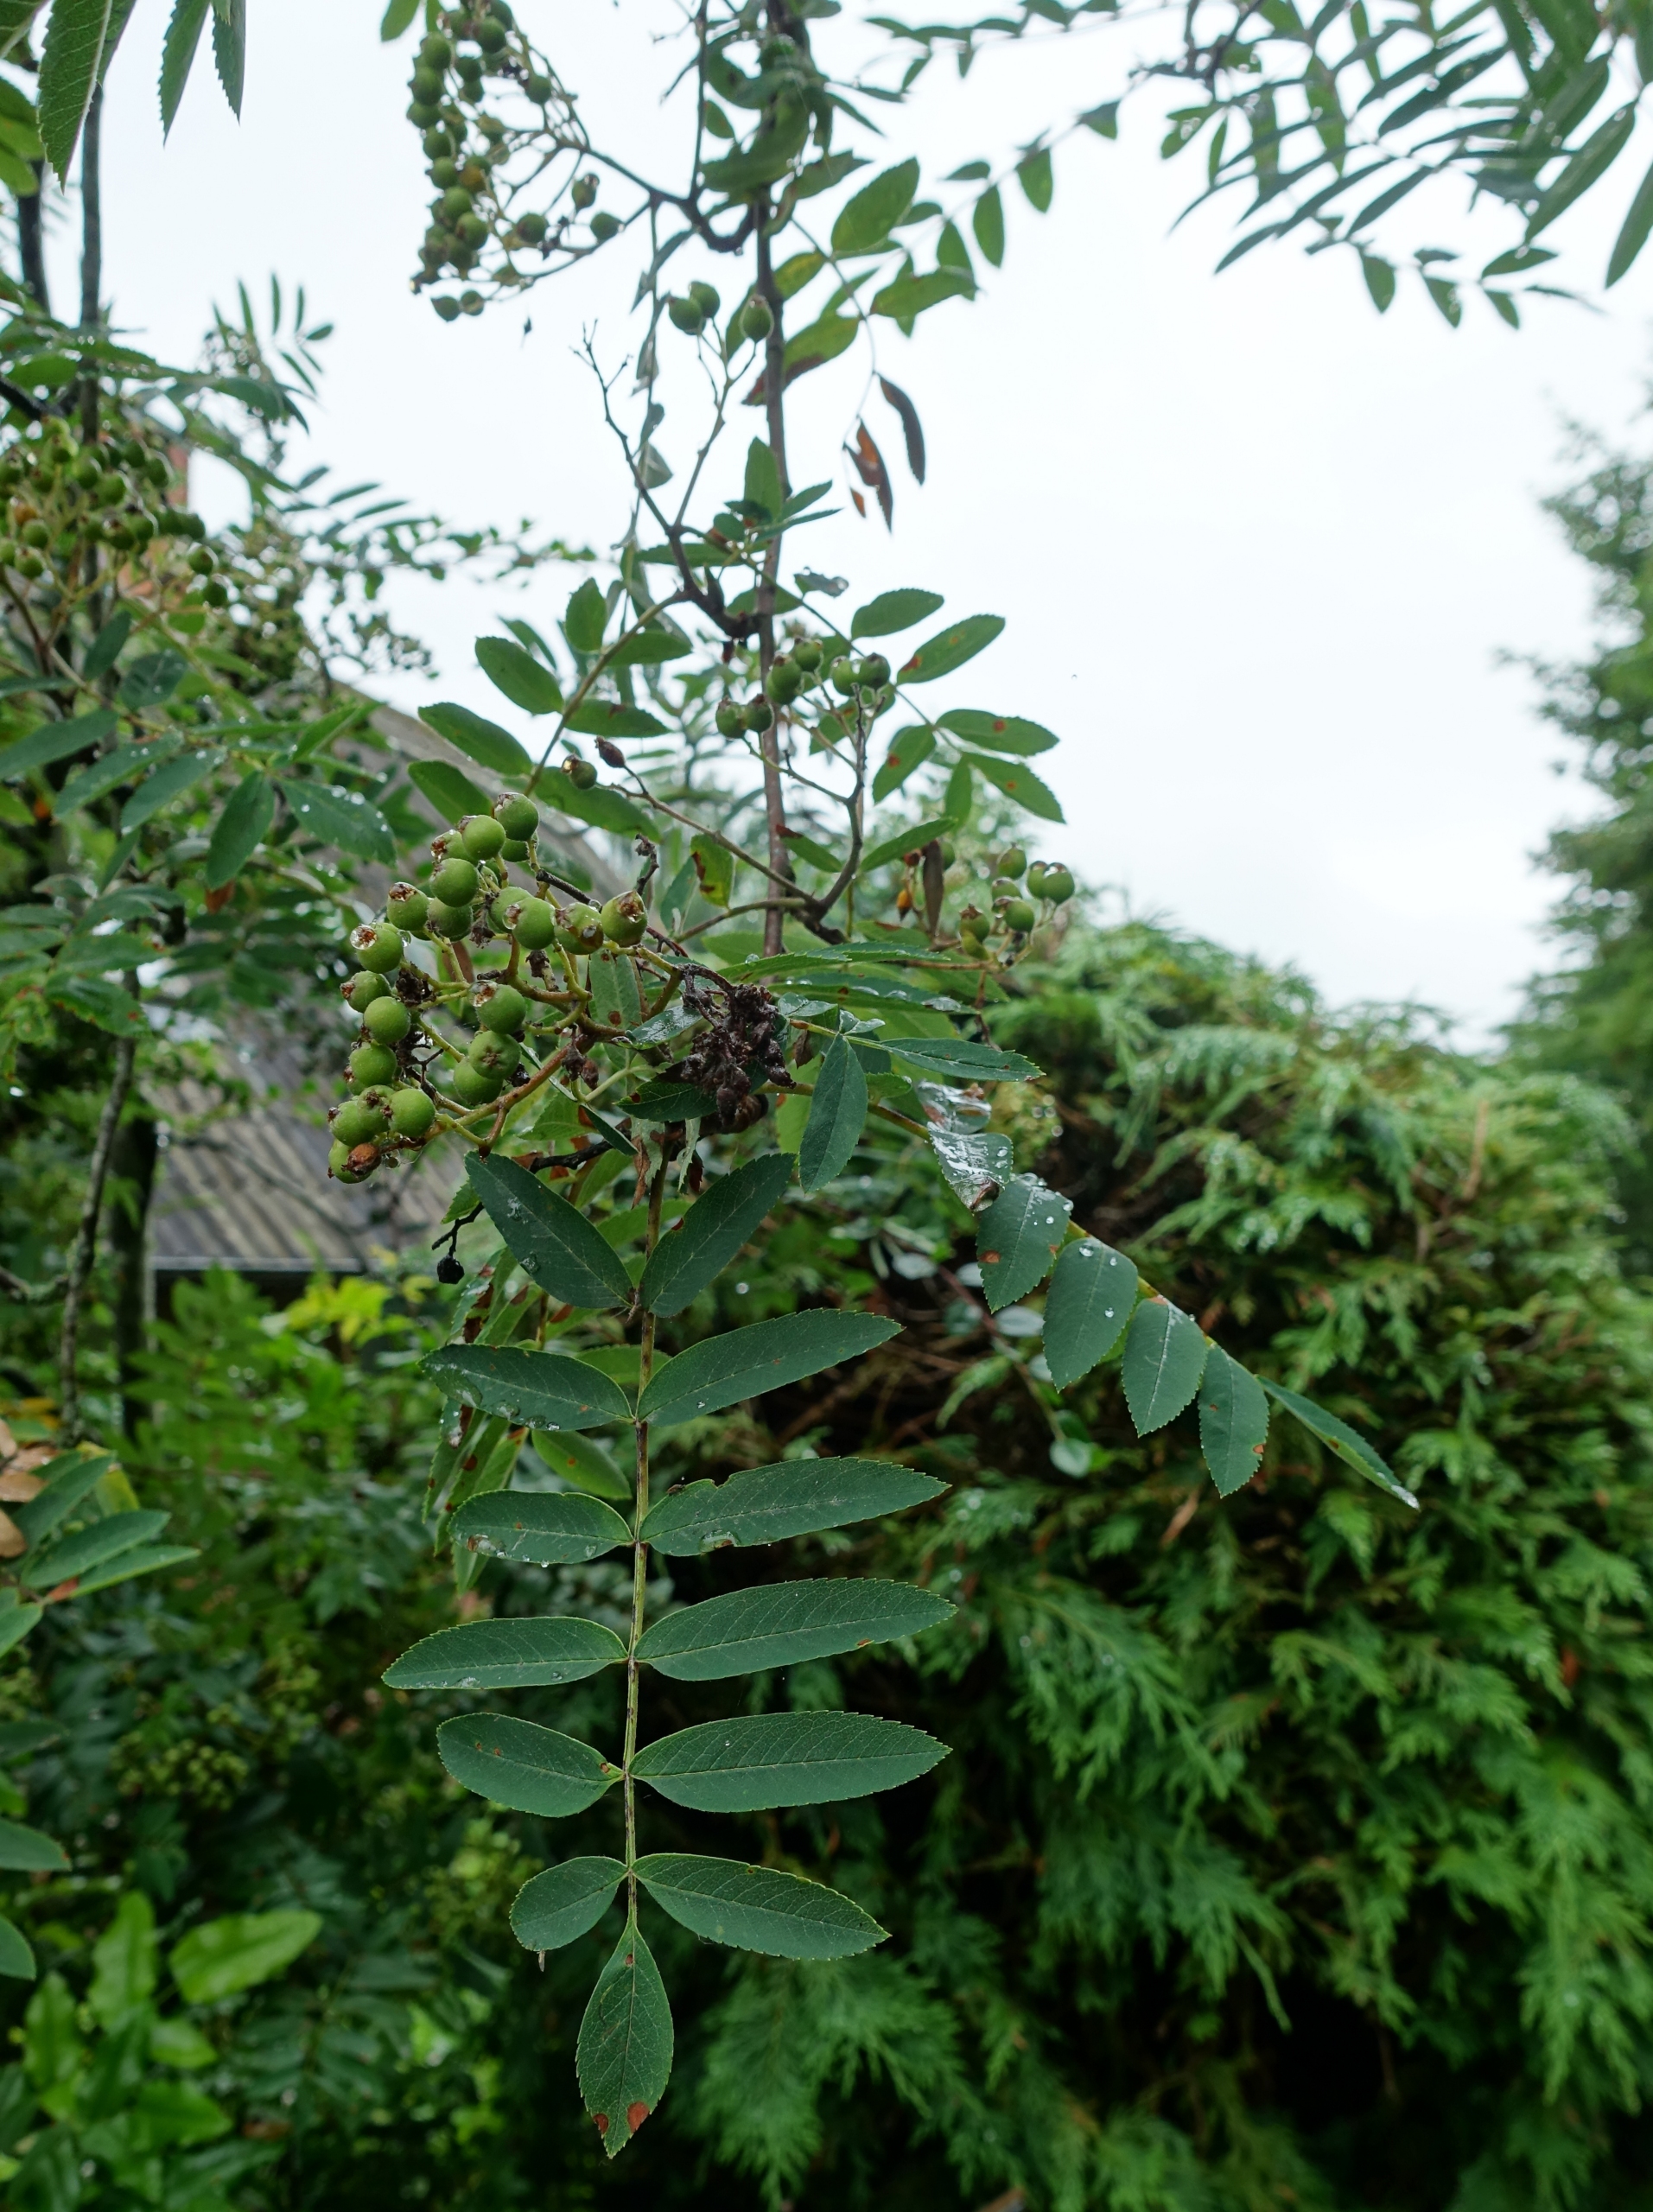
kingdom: Plantae
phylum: Tracheophyta
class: Magnoliopsida
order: Rosales
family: Rosaceae
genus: Sorbus
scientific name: Sorbus aucuparia
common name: Almindelig røn
